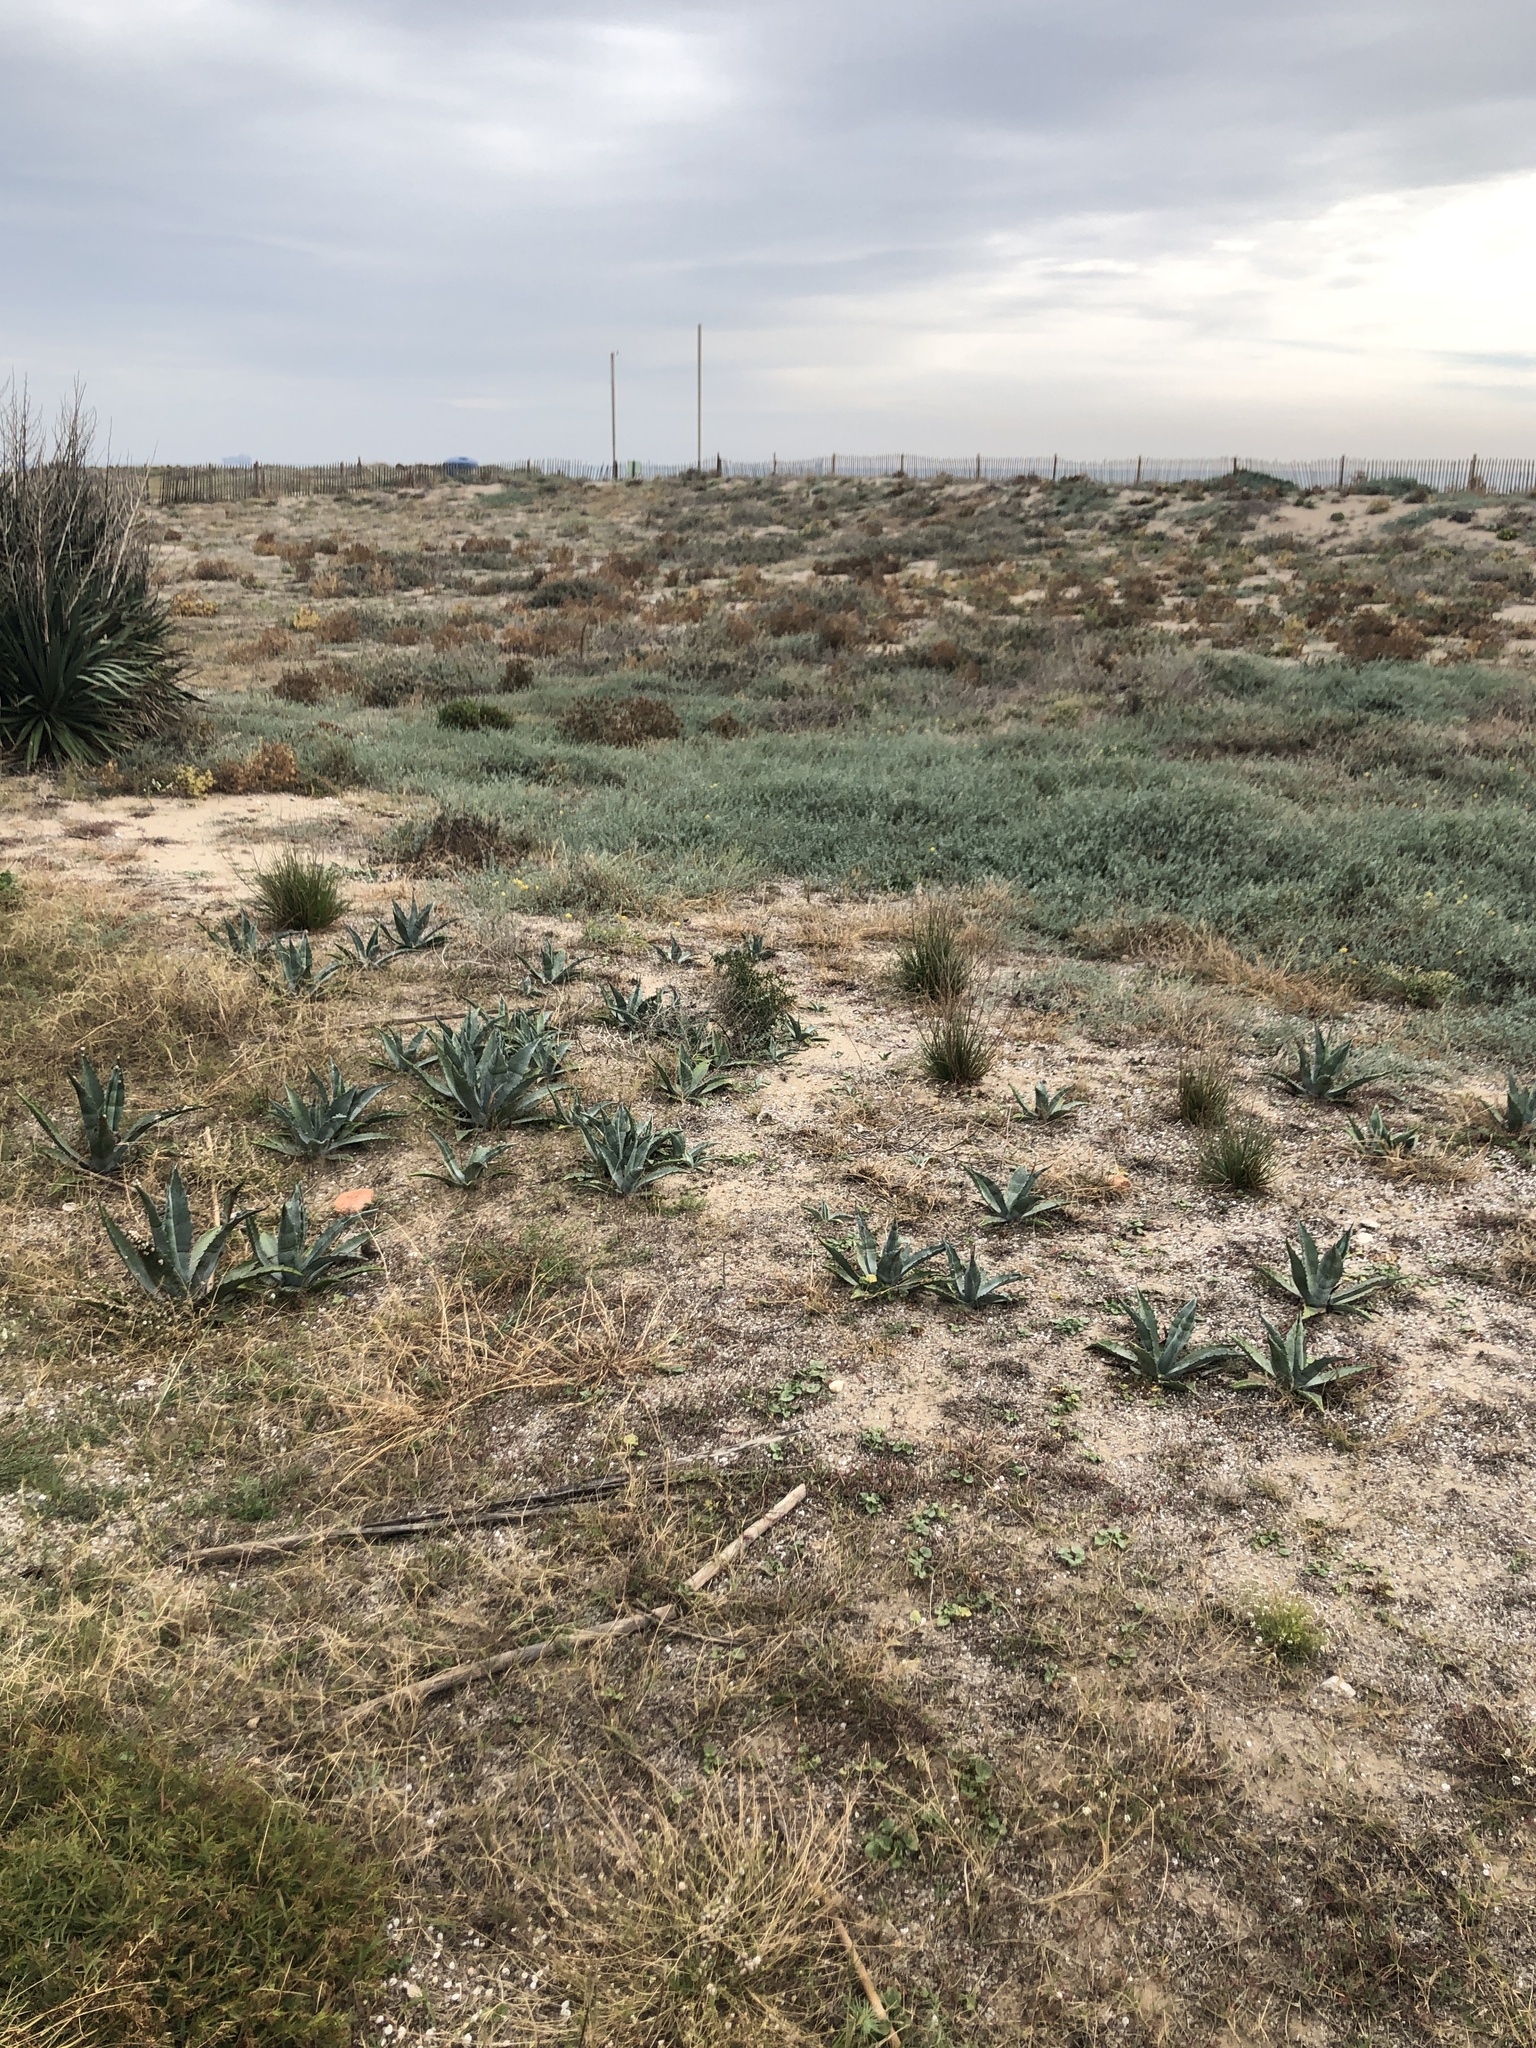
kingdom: Plantae
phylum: Tracheophyta
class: Liliopsida
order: Asparagales
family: Asparagaceae
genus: Agave
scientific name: Agave americana
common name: Centuryplant
